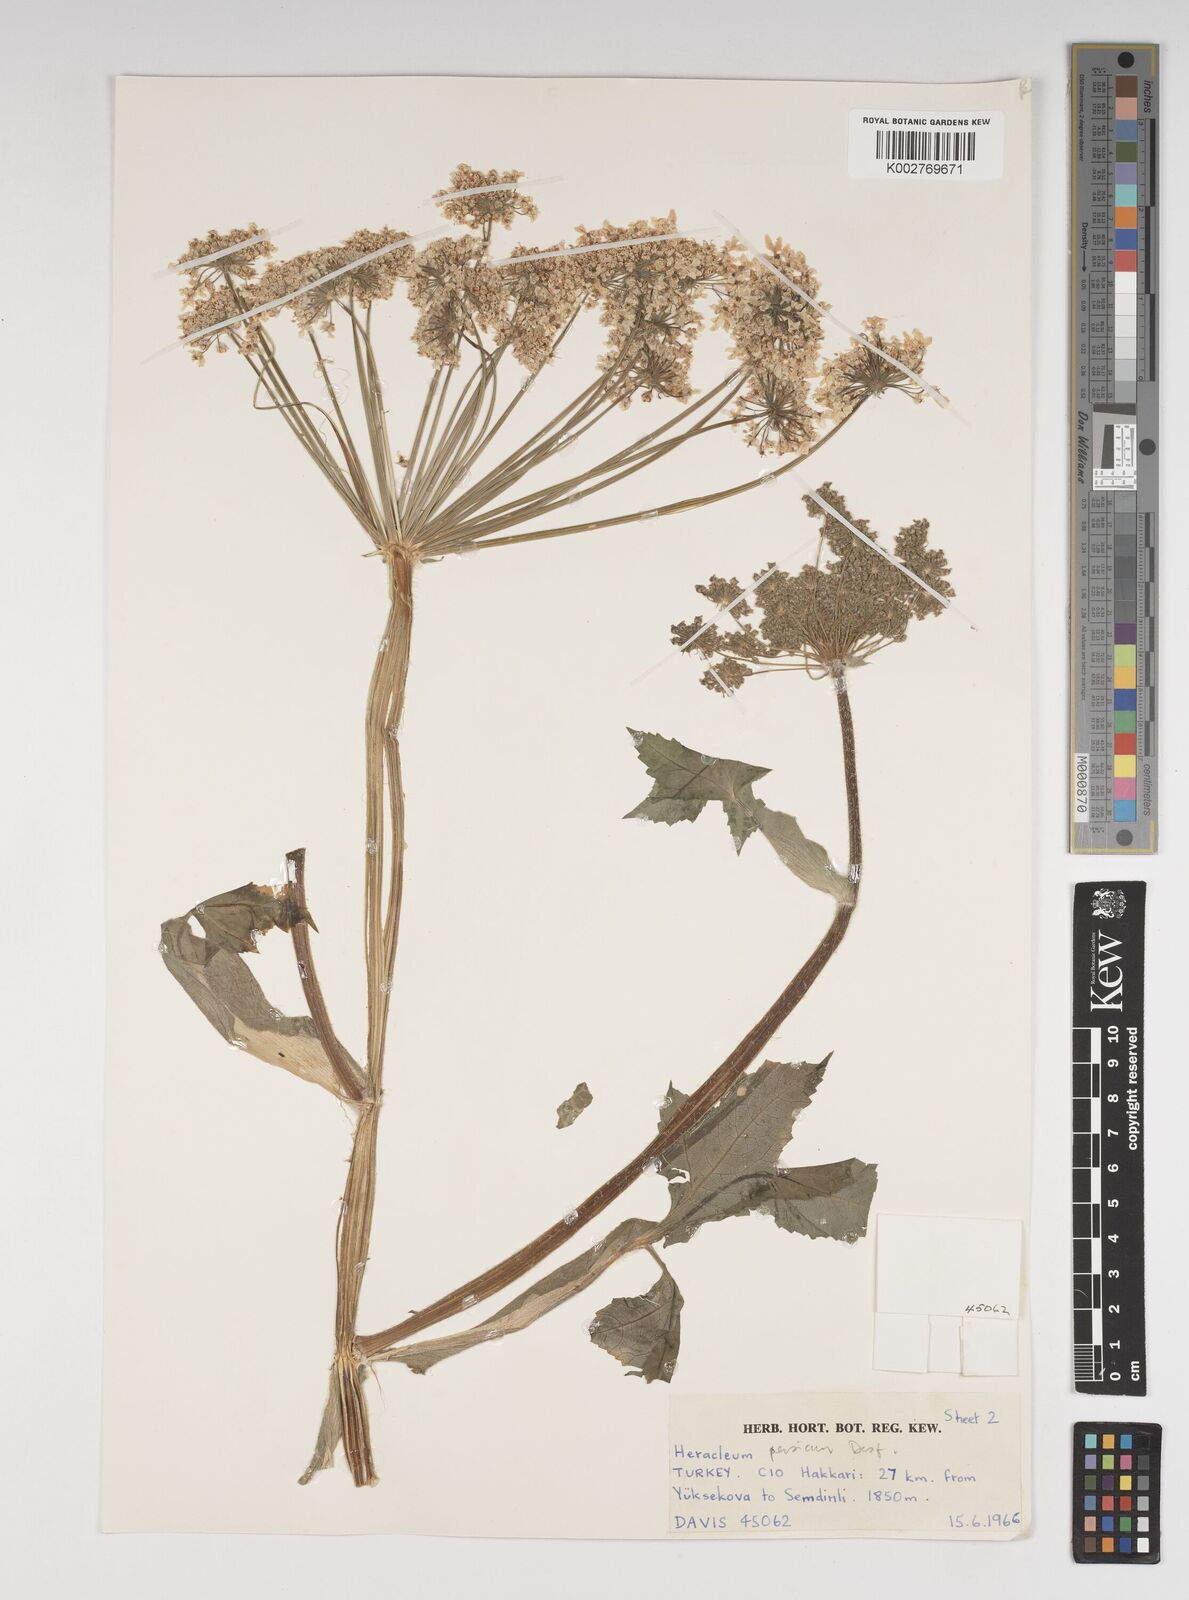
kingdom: Plantae
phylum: Tracheophyta
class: Magnoliopsida
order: Apiales
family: Apiaceae
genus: Heracleum
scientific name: Heracleum persicum
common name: Persian hogweed
